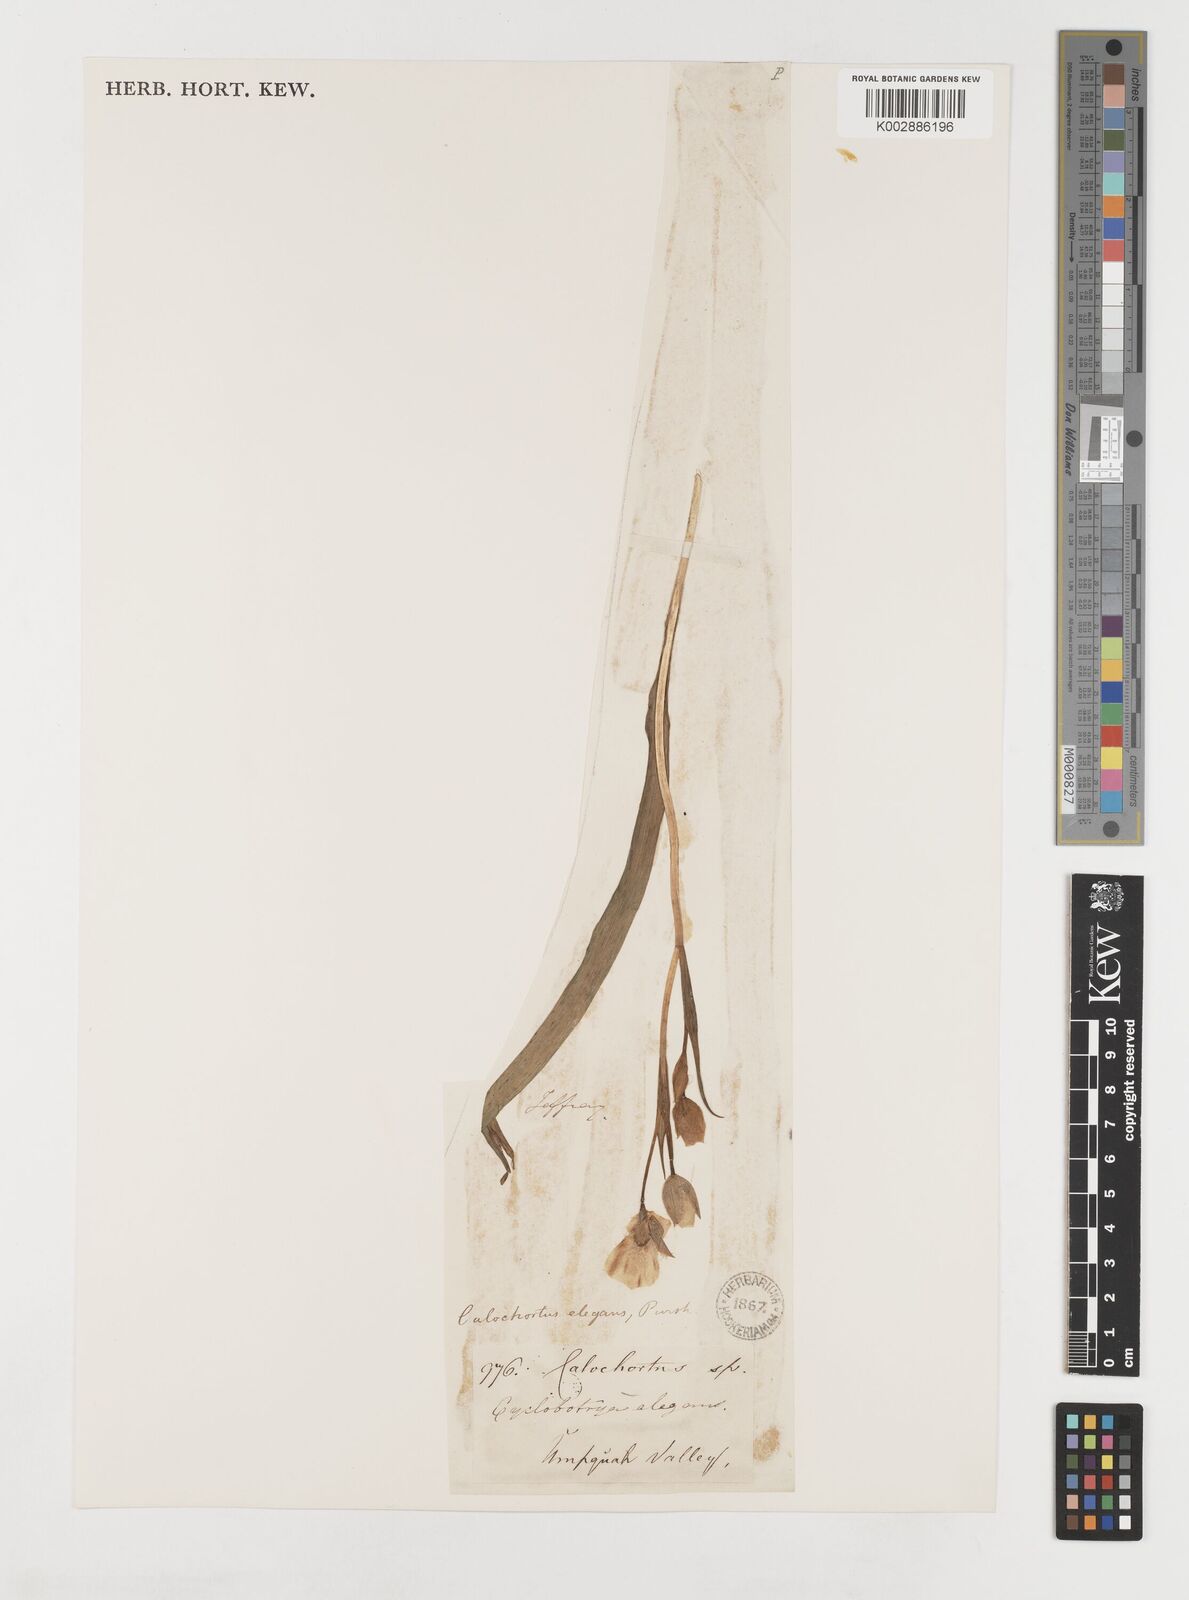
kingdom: Plantae
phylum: Tracheophyta
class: Liliopsida
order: Liliales
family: Liliaceae
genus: Calochortus
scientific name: Calochortus elegans
